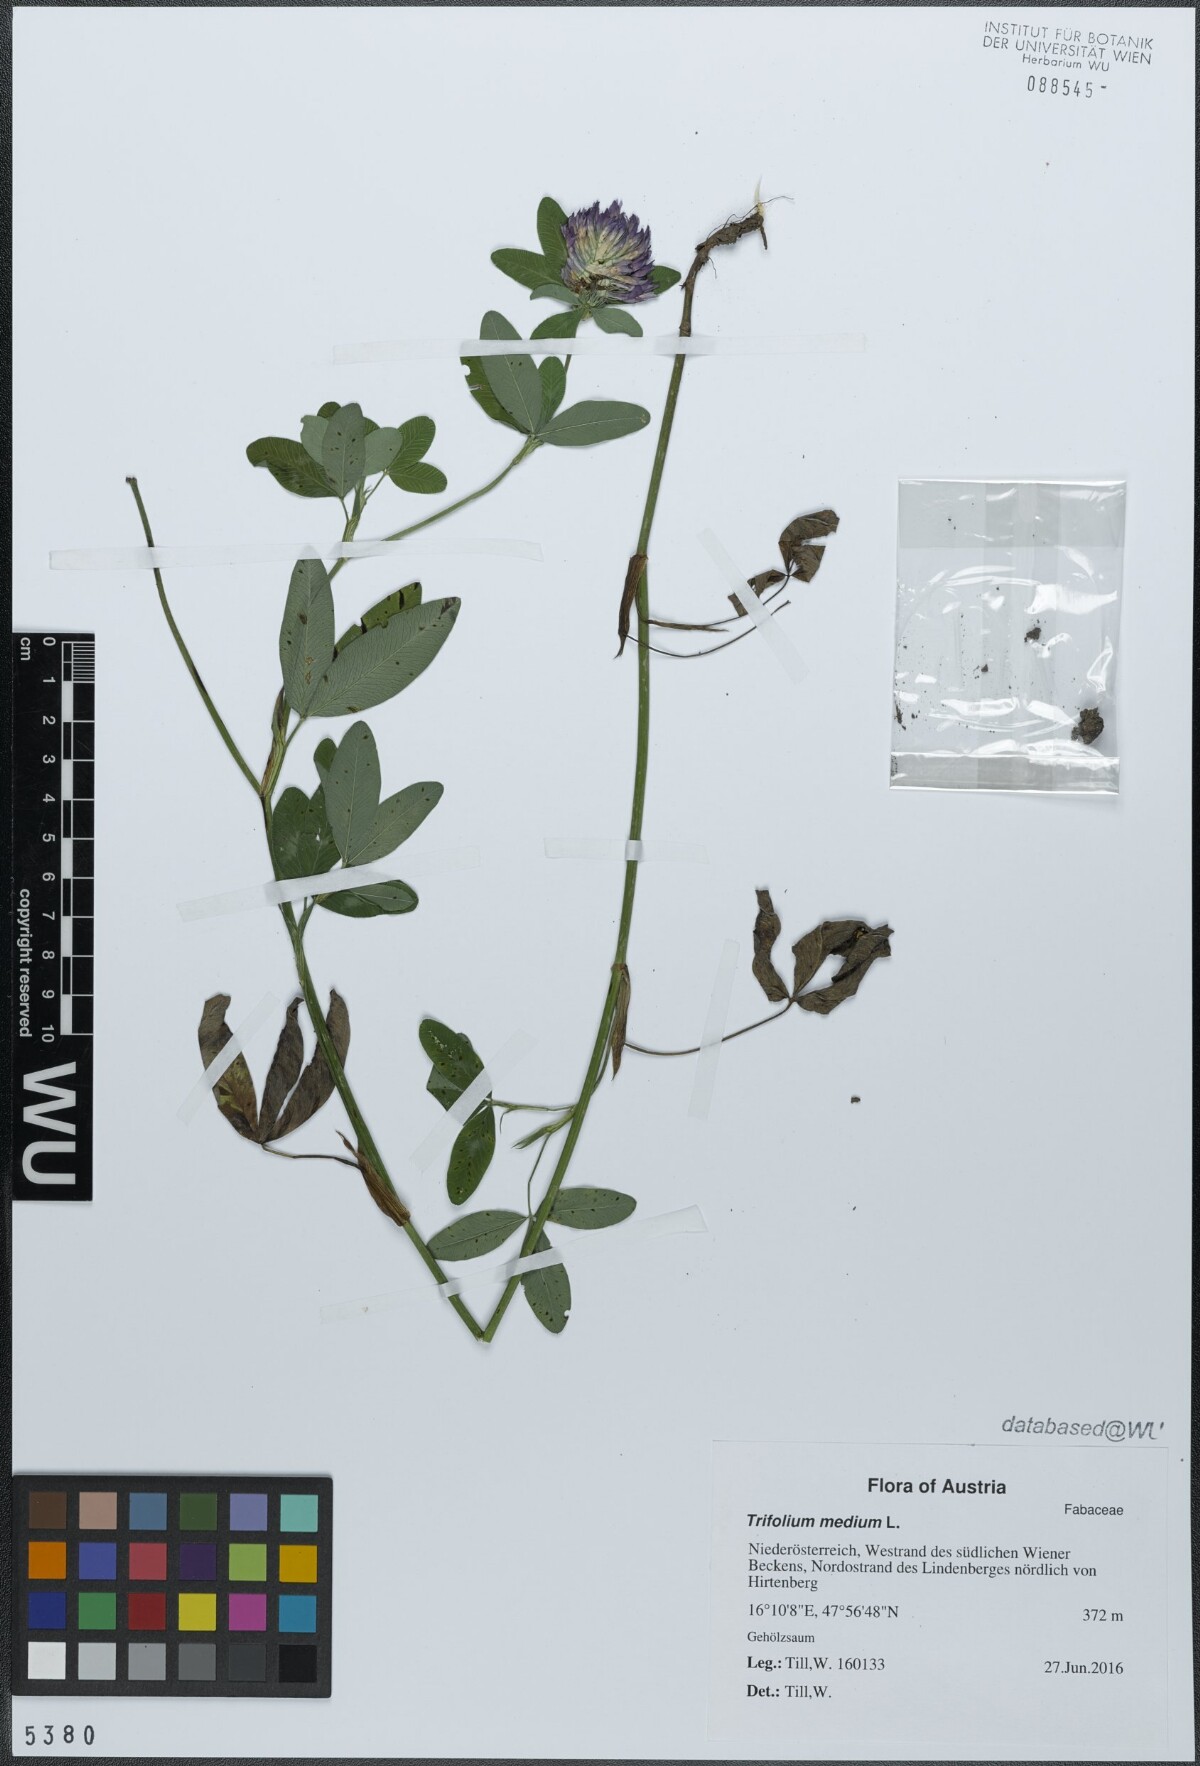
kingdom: Plantae
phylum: Tracheophyta
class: Magnoliopsida
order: Fabales
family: Fabaceae
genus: Trifolium
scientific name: Trifolium medium
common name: Zigzag clover
